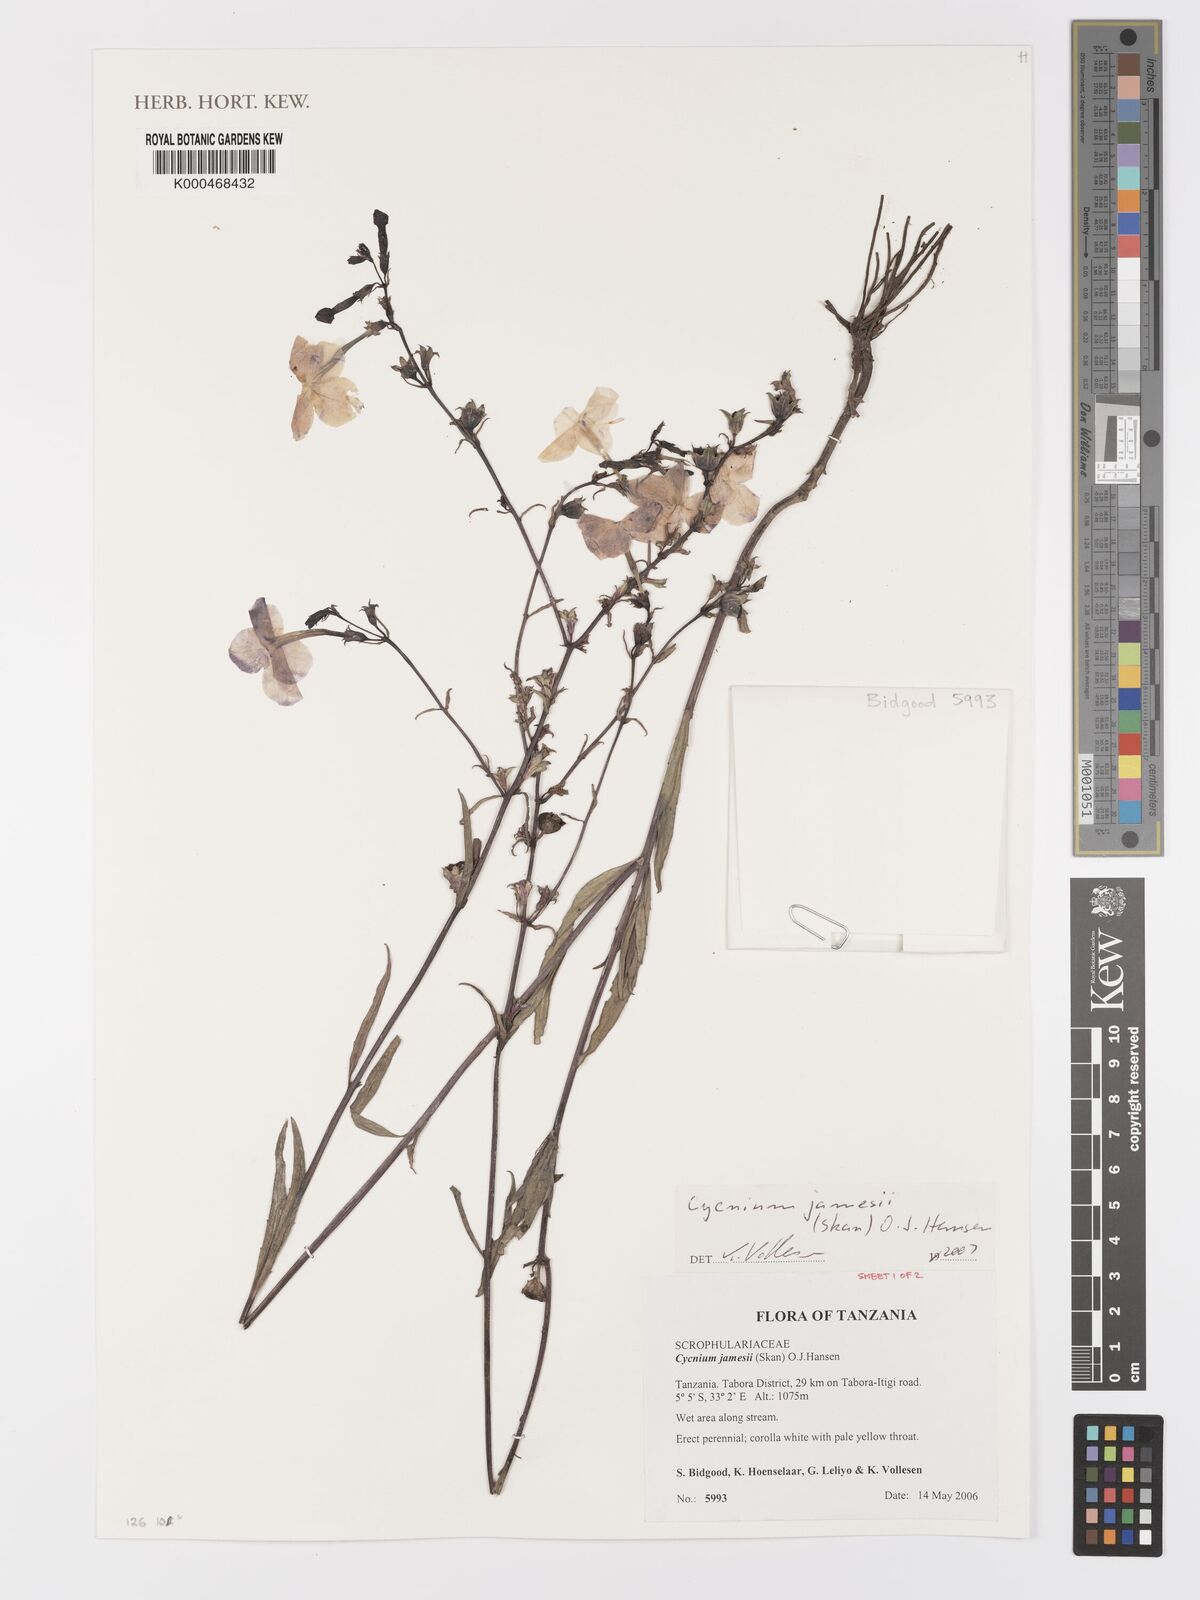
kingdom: Plantae
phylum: Tracheophyta
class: Magnoliopsida
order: Lamiales
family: Orobanchaceae
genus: Cycnium
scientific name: Cycnium jamesii
